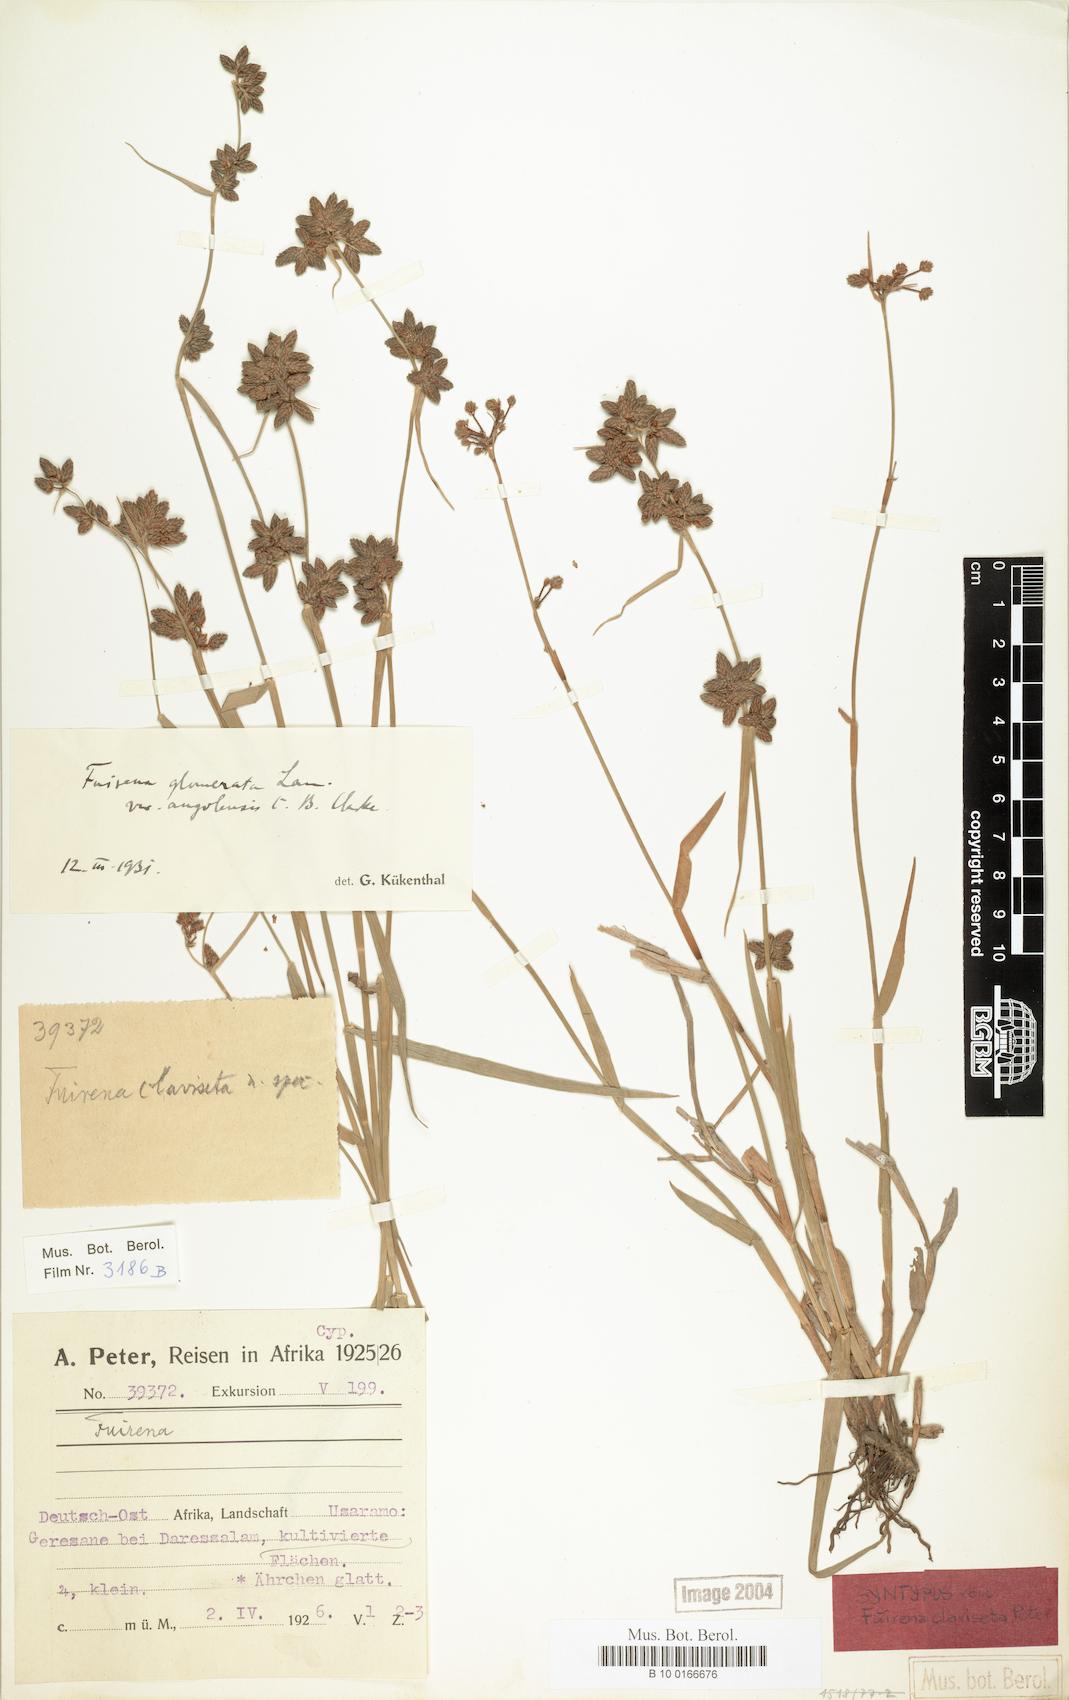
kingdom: Plantae
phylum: Tracheophyta
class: Liliopsida
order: Poales
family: Cyperaceae
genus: Fuirena
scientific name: Fuirena ciliaris
